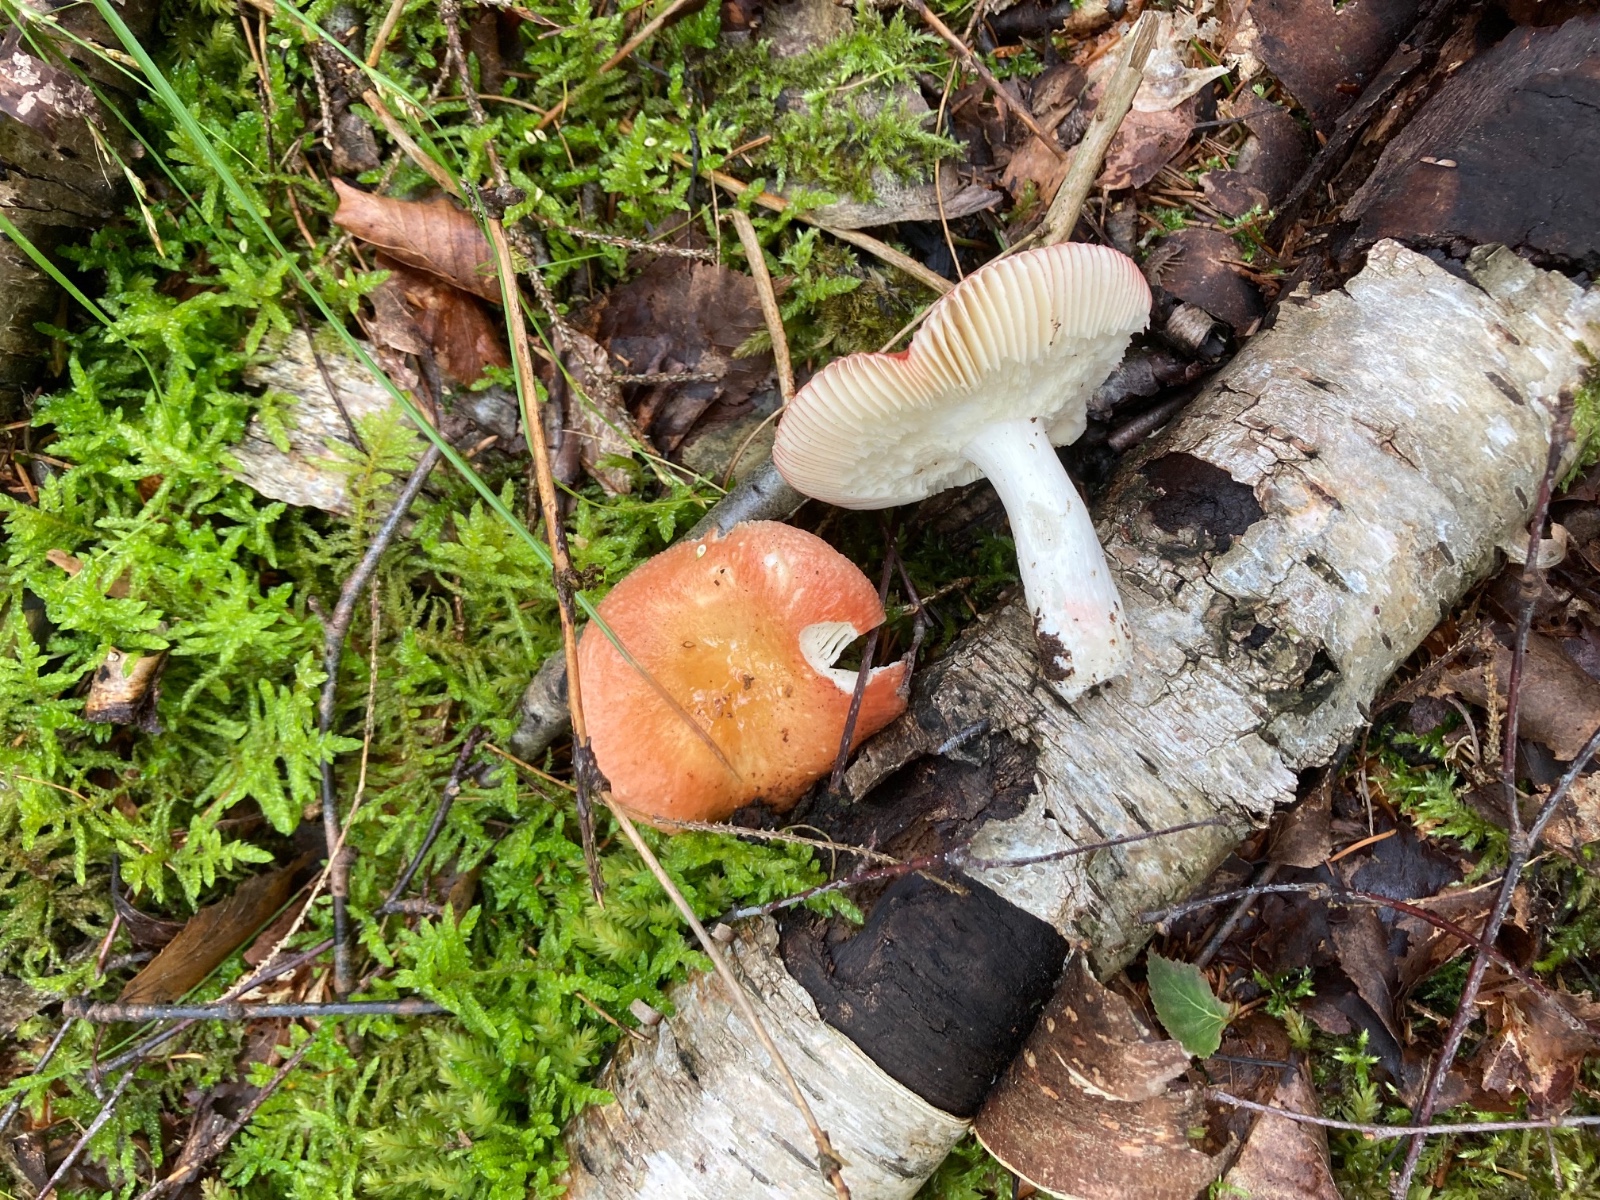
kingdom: Fungi
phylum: Basidiomycota
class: Agaricomycetes
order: Russulales
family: Russulaceae
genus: Russula
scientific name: Russula nitida
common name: året skørhat
